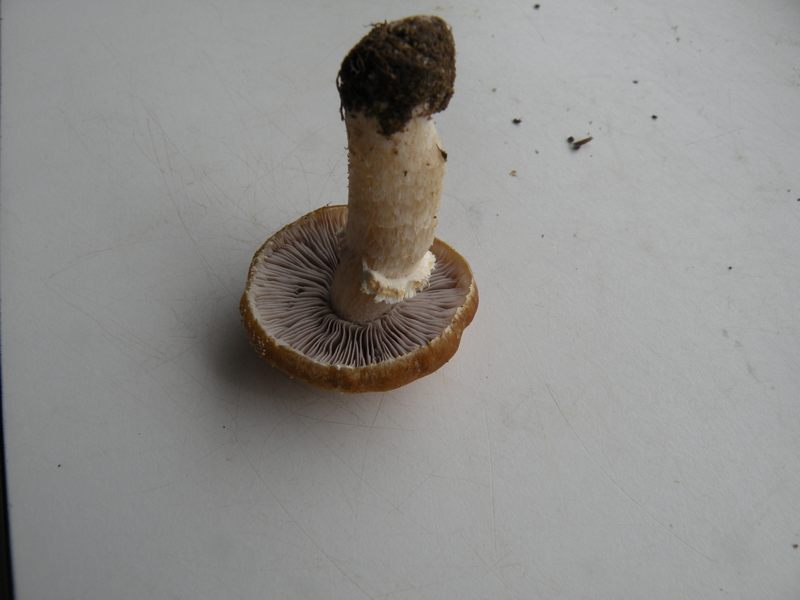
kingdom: Fungi
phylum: Basidiomycota
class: Agaricomycetes
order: Agaricales
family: Hymenogastraceae
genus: Psilocybe
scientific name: Psilocybe coronilla
